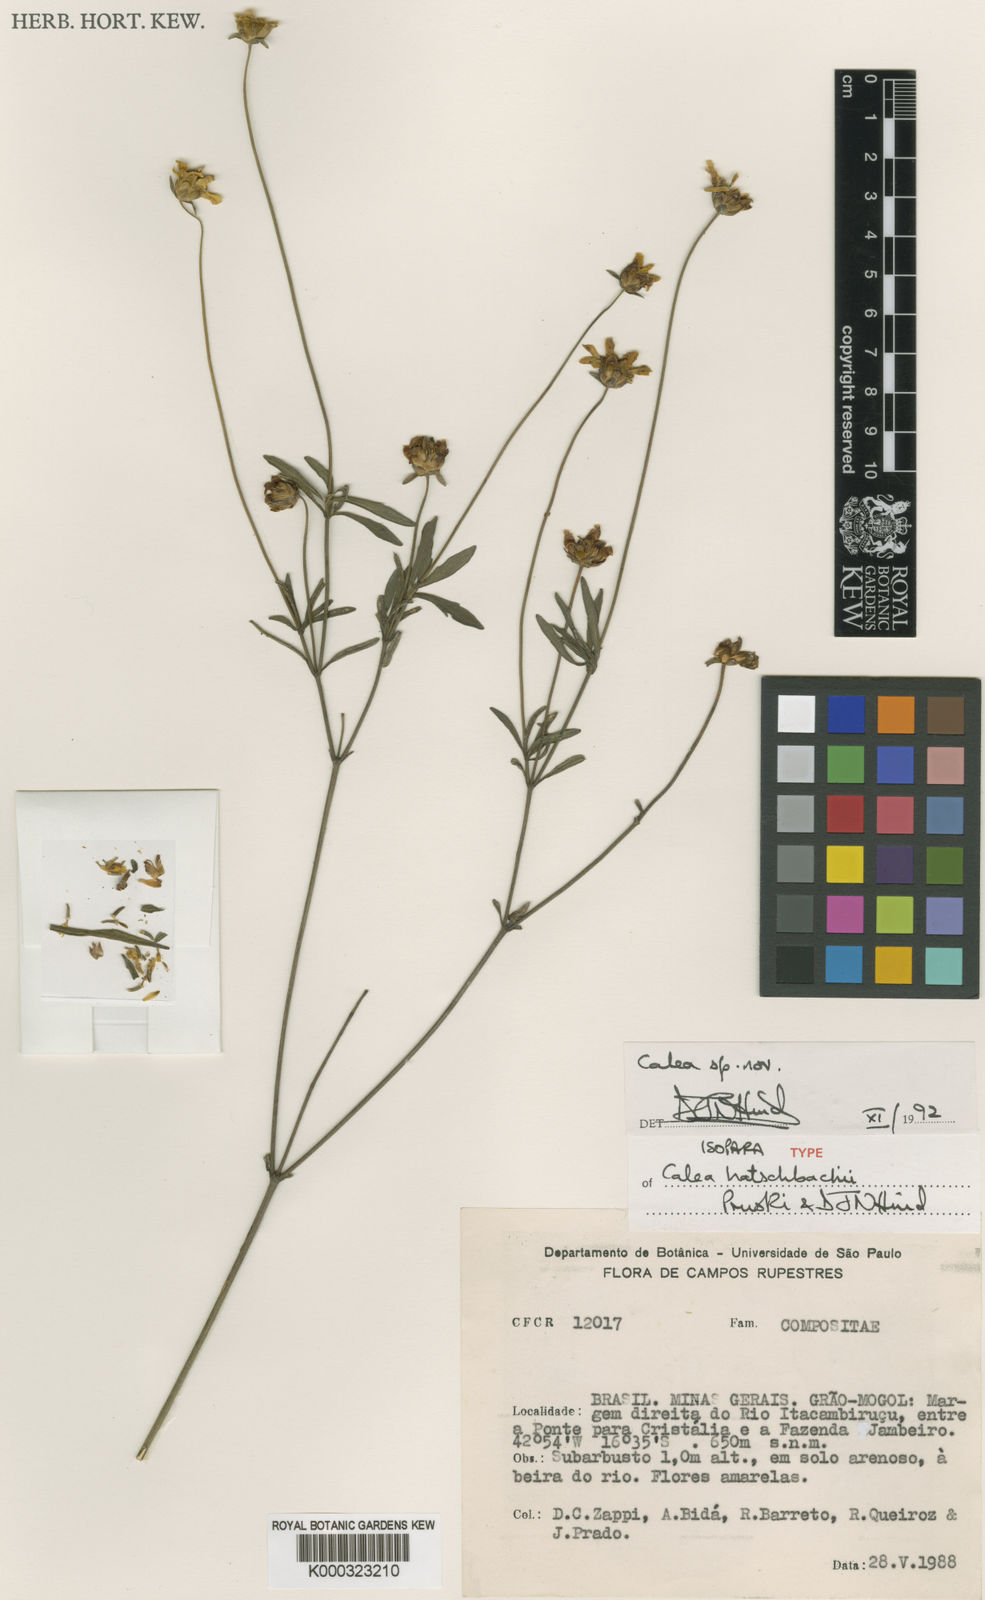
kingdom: Plantae
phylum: Tracheophyta
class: Magnoliopsida
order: Asterales
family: Asteraceae
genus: Calea
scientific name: Calea hatschbachii
